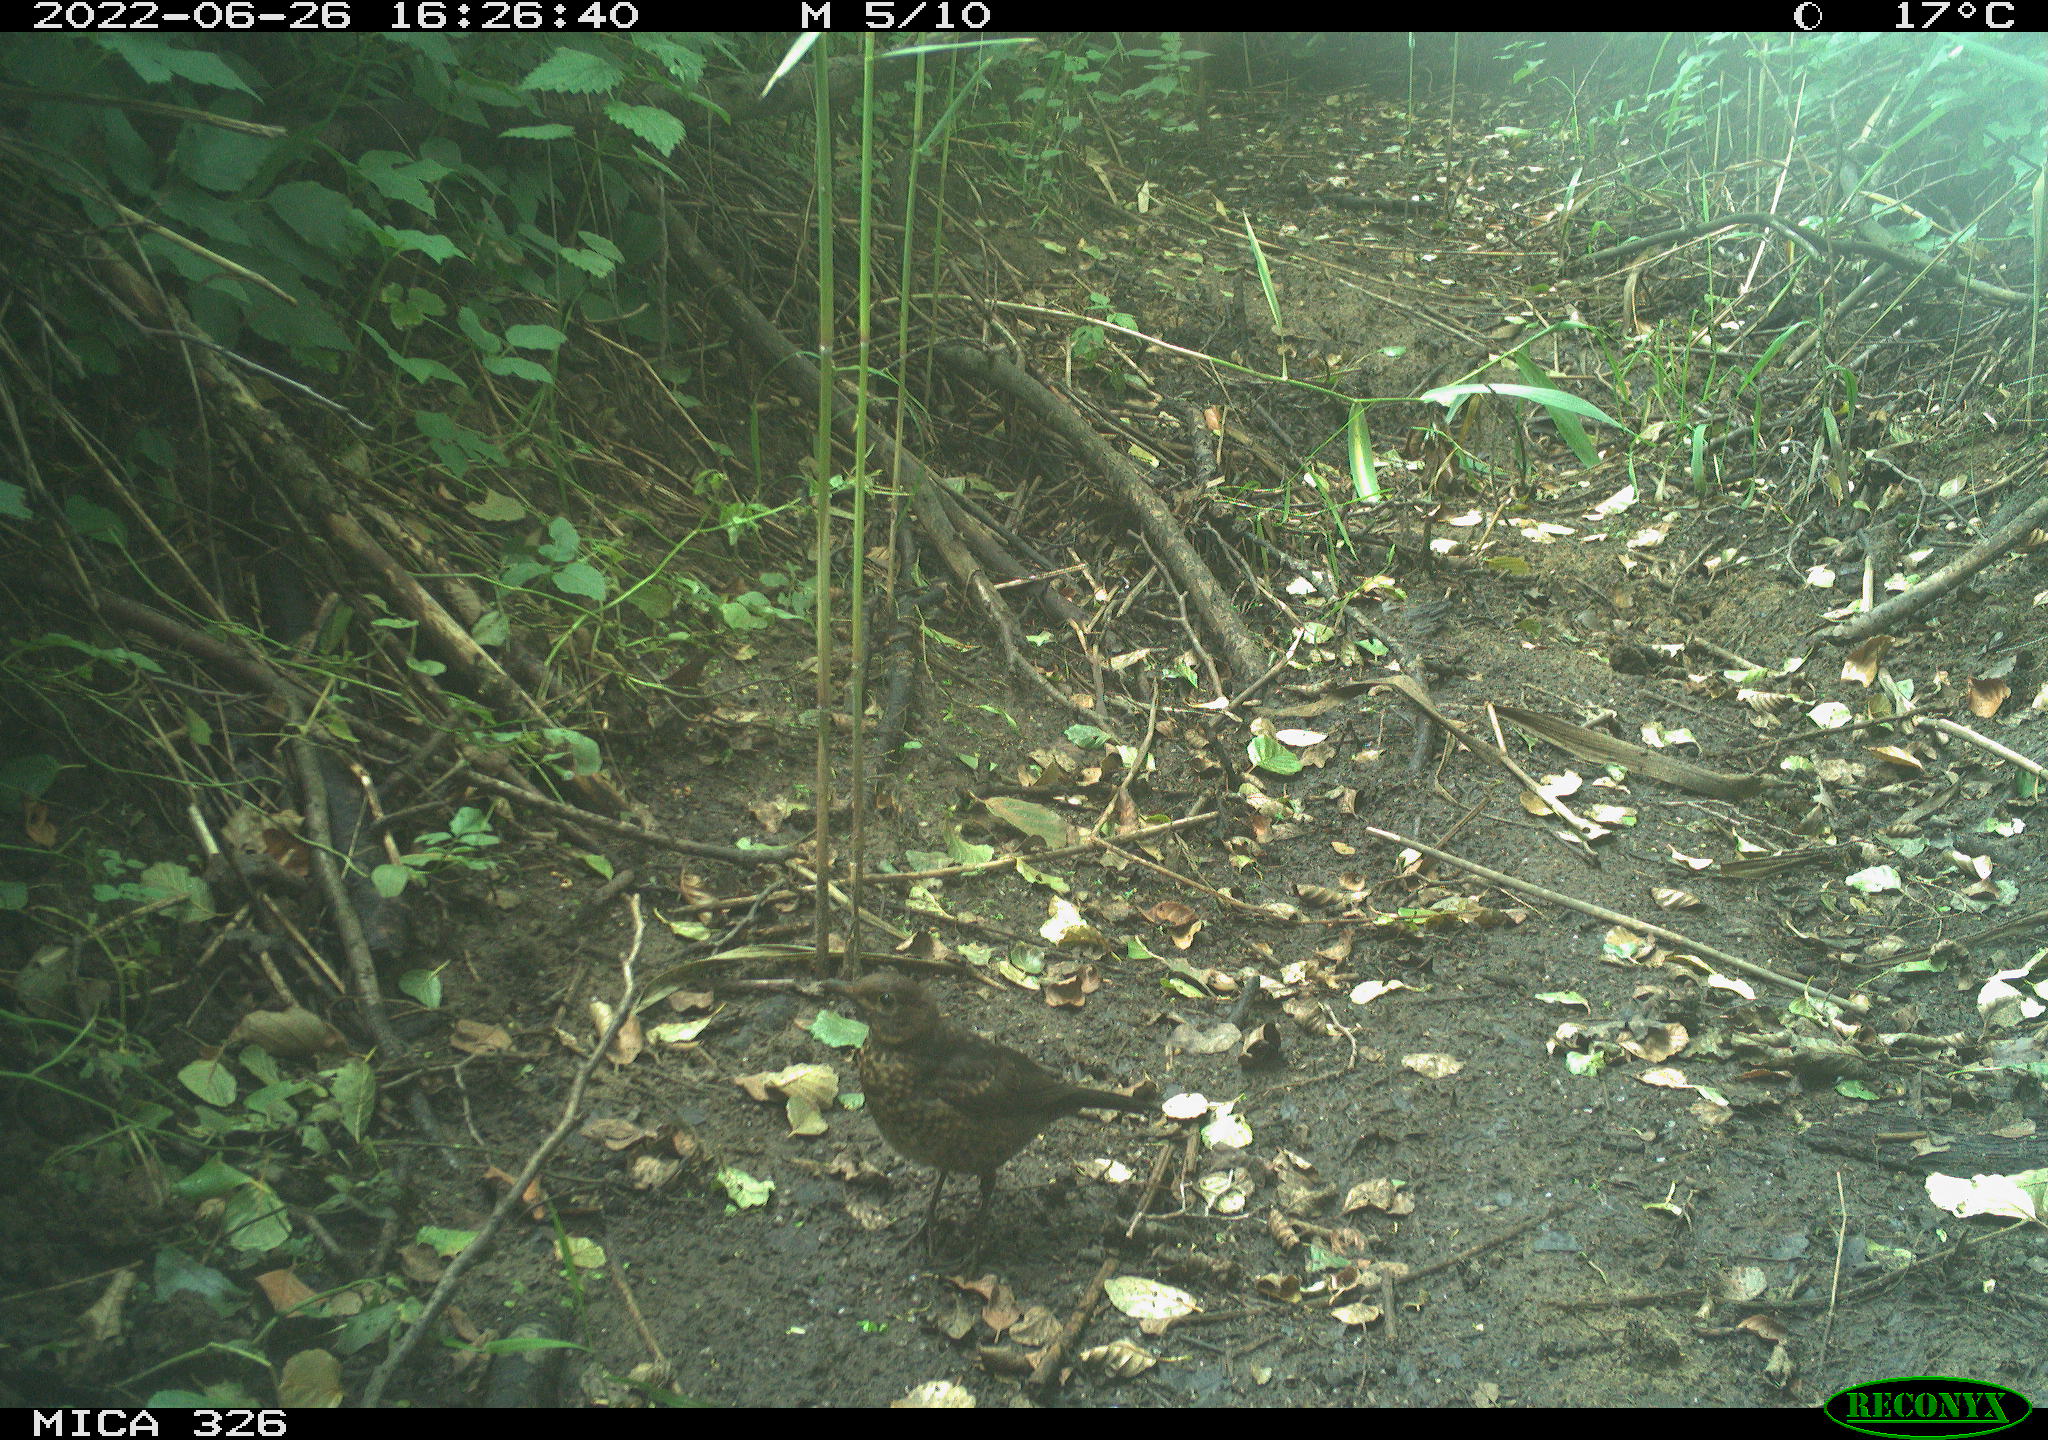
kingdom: Animalia
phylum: Chordata
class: Aves
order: Passeriformes
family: Turdidae
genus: Turdus
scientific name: Turdus
